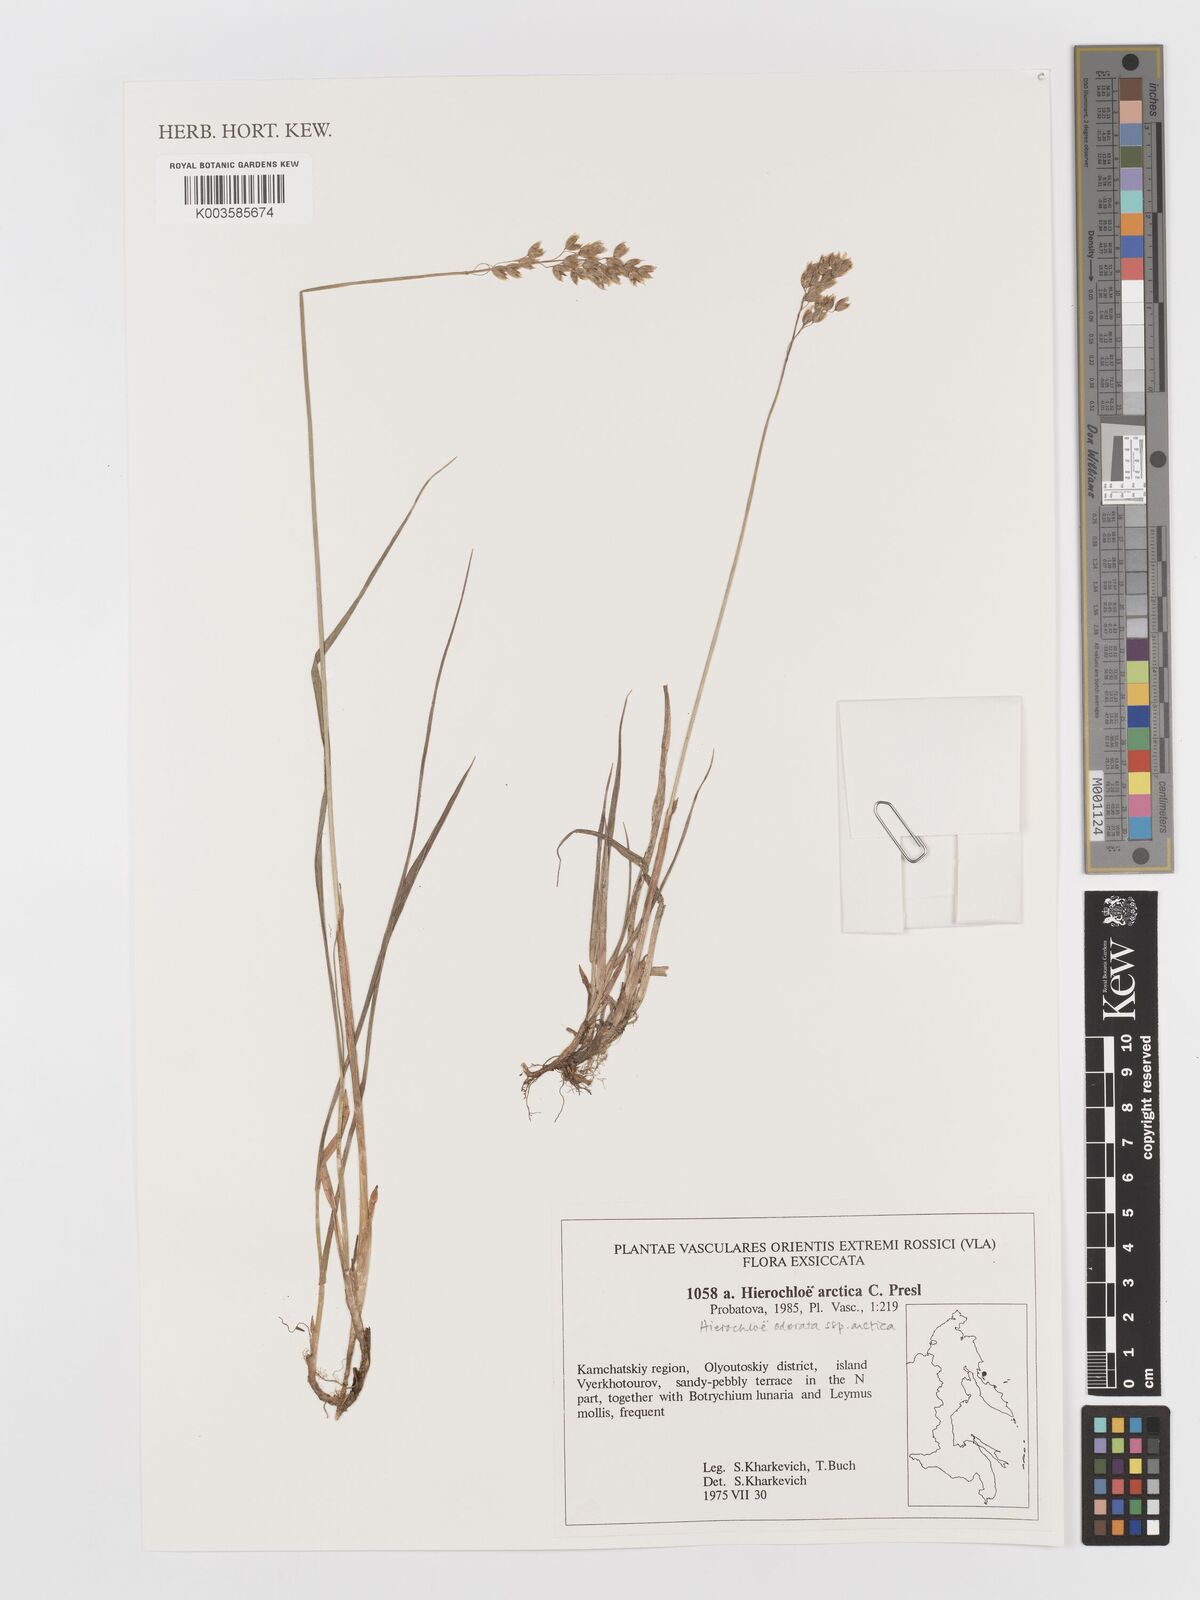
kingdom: Plantae
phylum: Tracheophyta
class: Liliopsida
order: Poales
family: Poaceae
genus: Anthoxanthum
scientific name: Anthoxanthum nitens
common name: Holy grass
